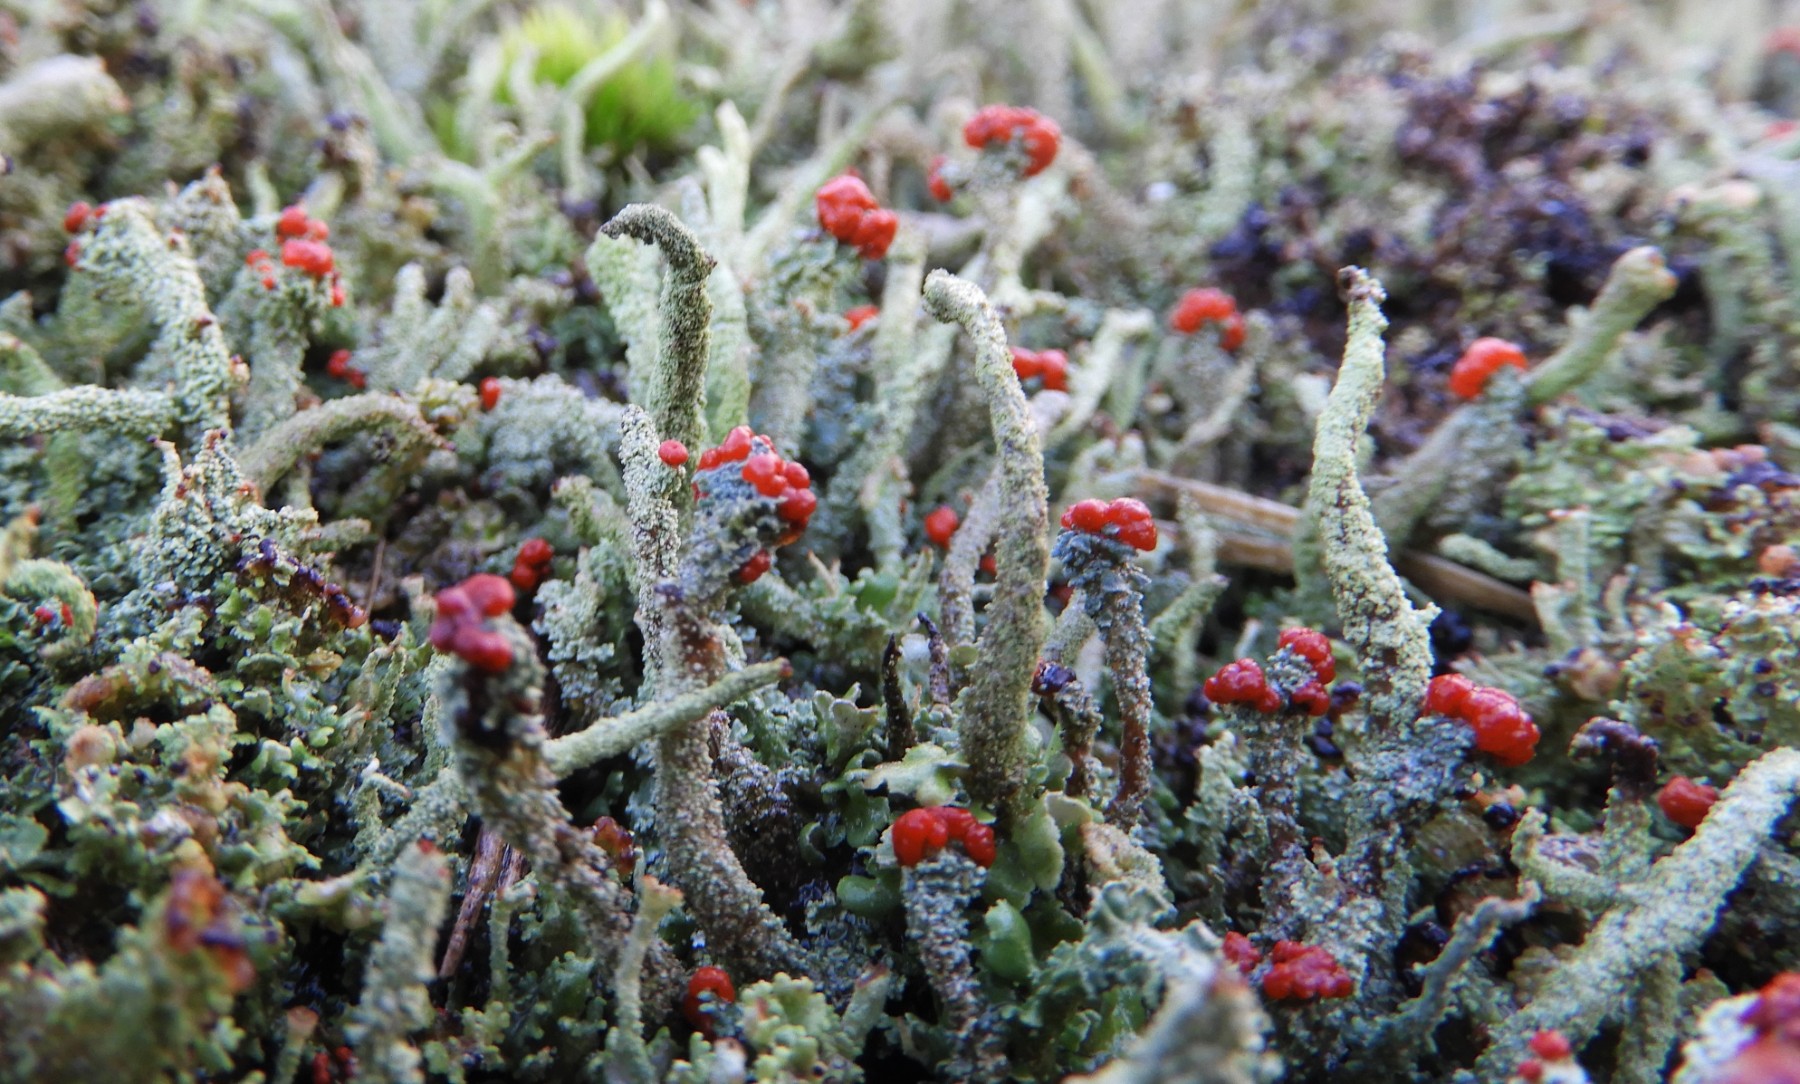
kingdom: Fungi
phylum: Ascomycota
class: Lecanoromycetes
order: Lecanorales
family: Cladoniaceae
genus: Cladonia
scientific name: Cladonia floerkeana
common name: lakrød bægerlav
